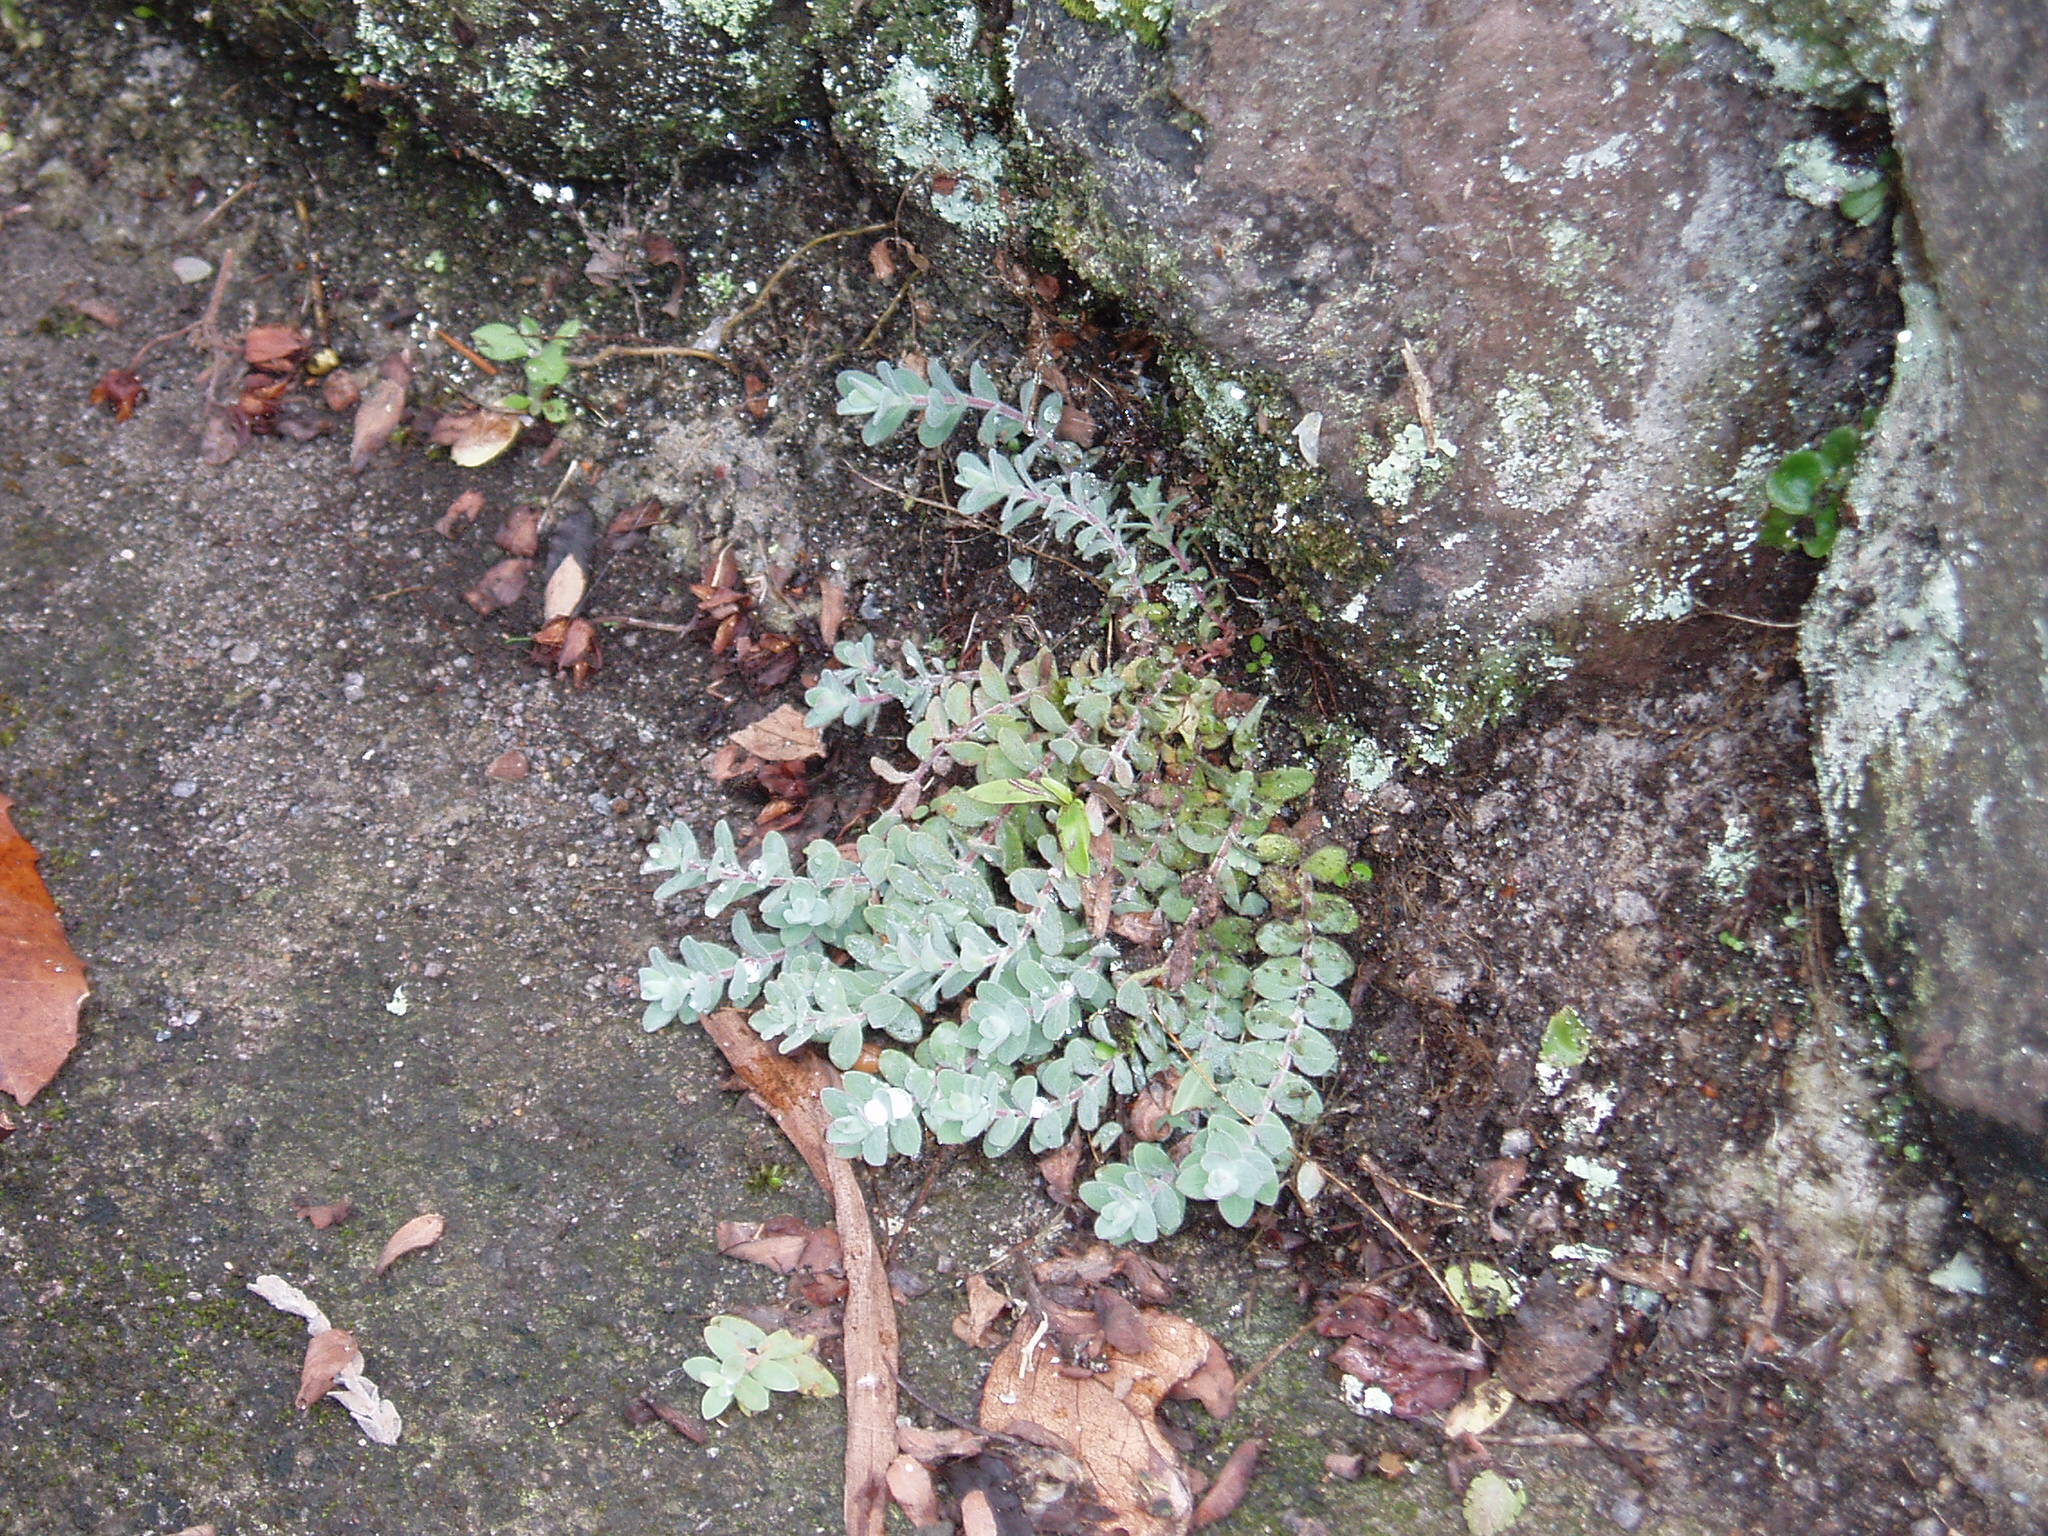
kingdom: Plantae
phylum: Tracheophyta
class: Magnoliopsida
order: Malpighiales
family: Hypericaceae
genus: Hypericum
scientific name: Hypericum olympicum
